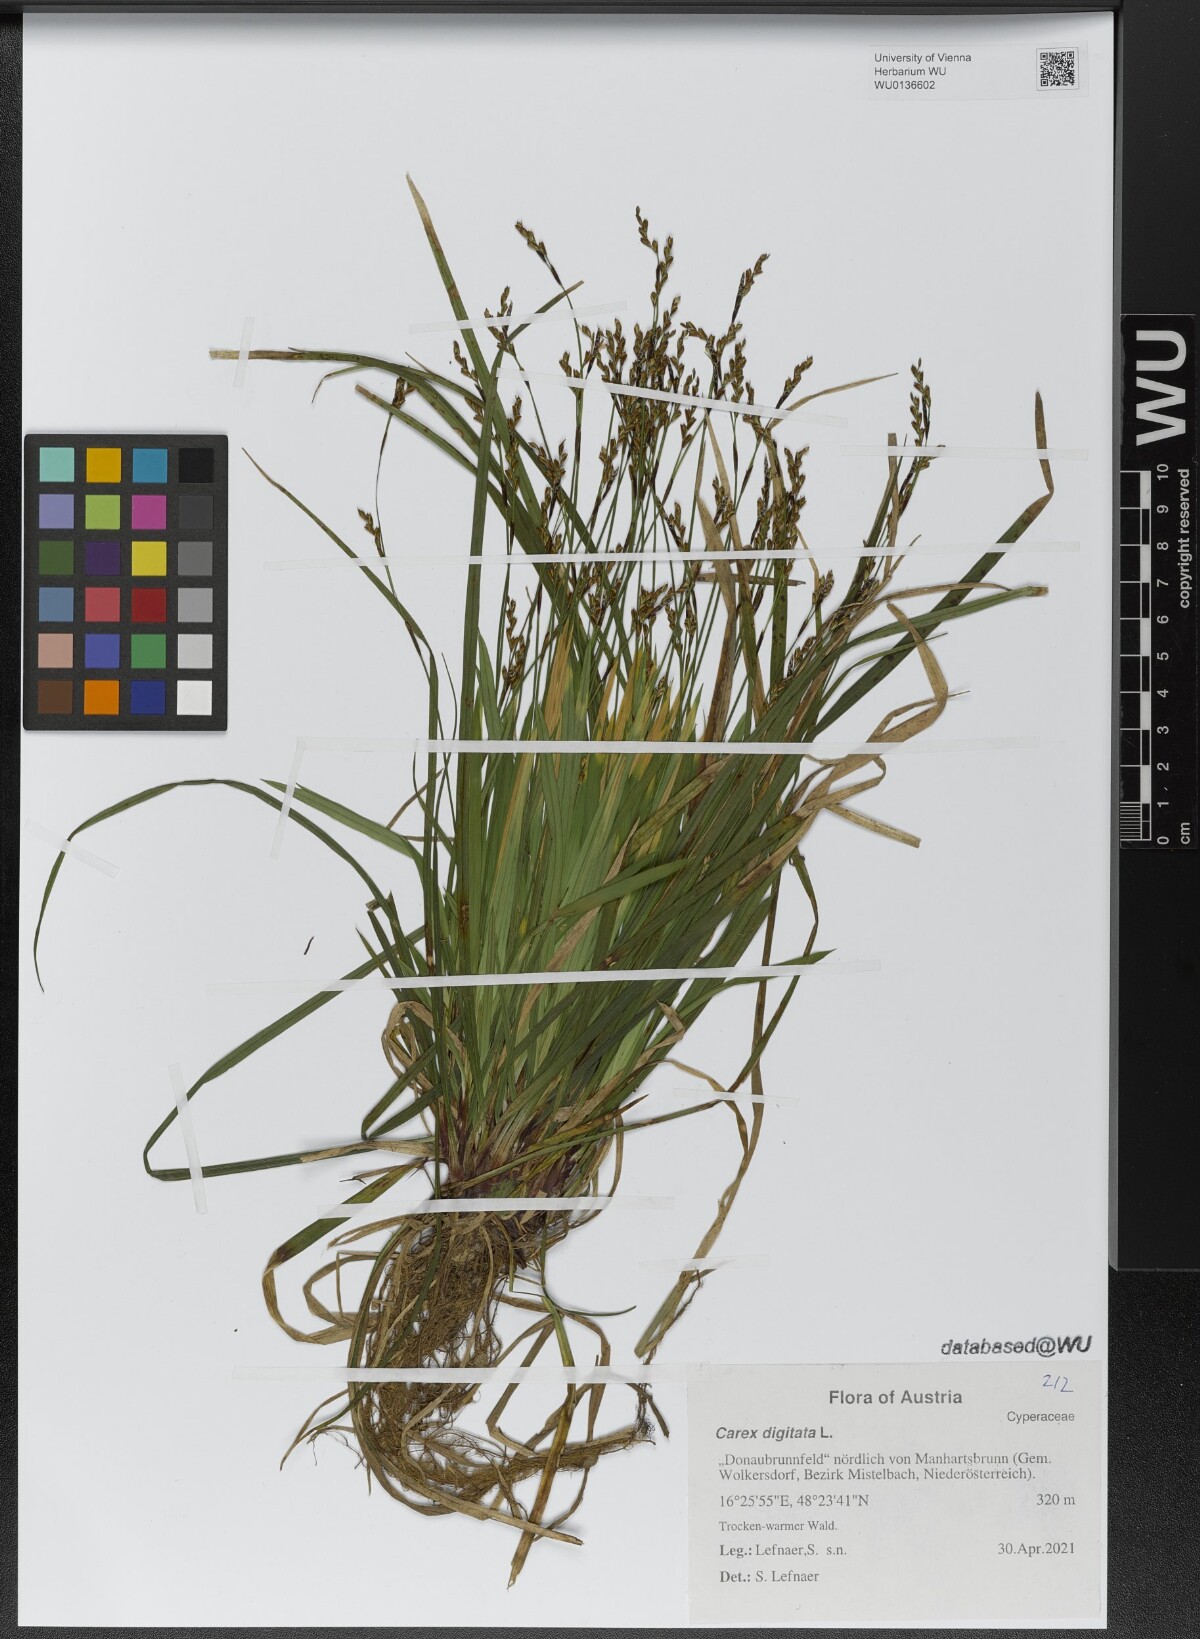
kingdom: Plantae
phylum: Tracheophyta
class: Liliopsida
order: Poales
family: Cyperaceae
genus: Carex
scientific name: Carex digitata
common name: Fingered sedge
